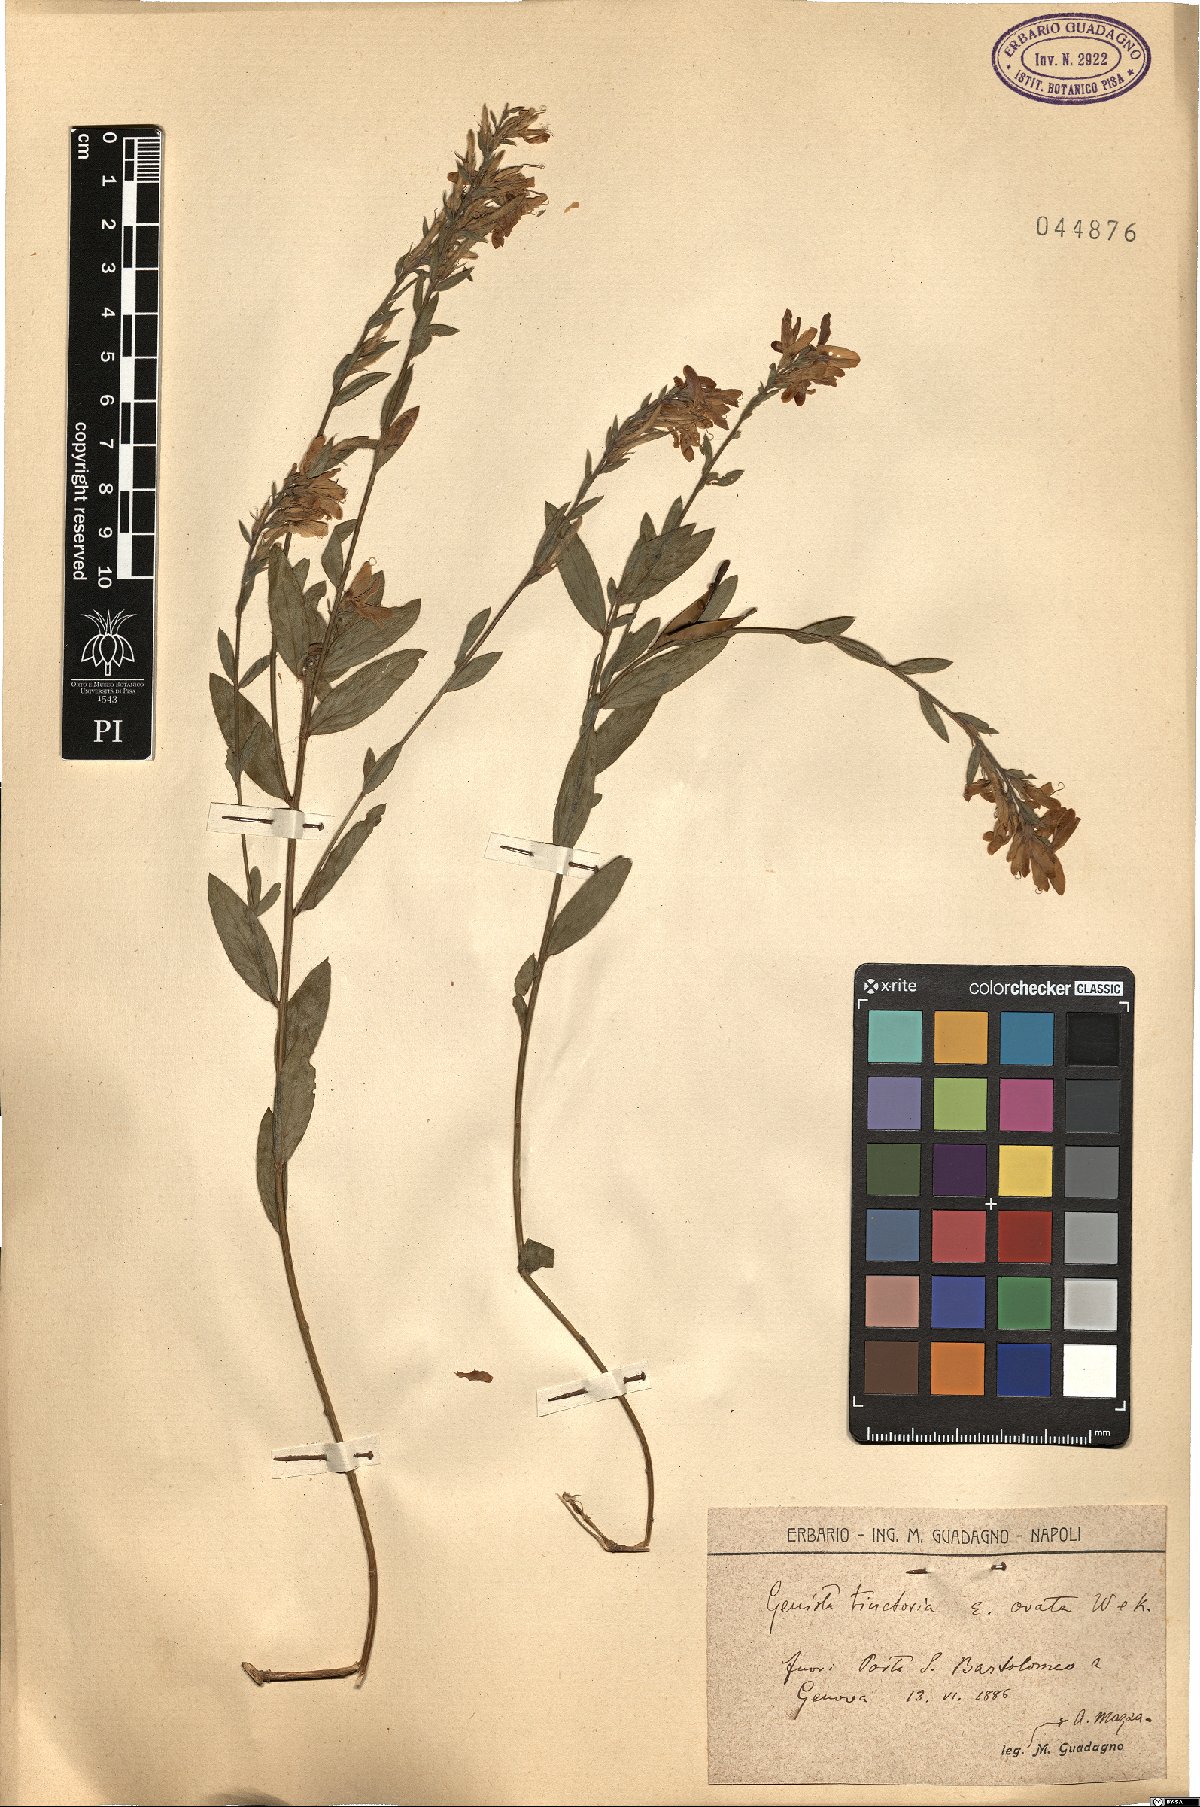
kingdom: Plantae
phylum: Tracheophyta
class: Magnoliopsida
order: Fabales
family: Fabaceae
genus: Genista
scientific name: Genista tinctoria
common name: Dyer's greenweed
